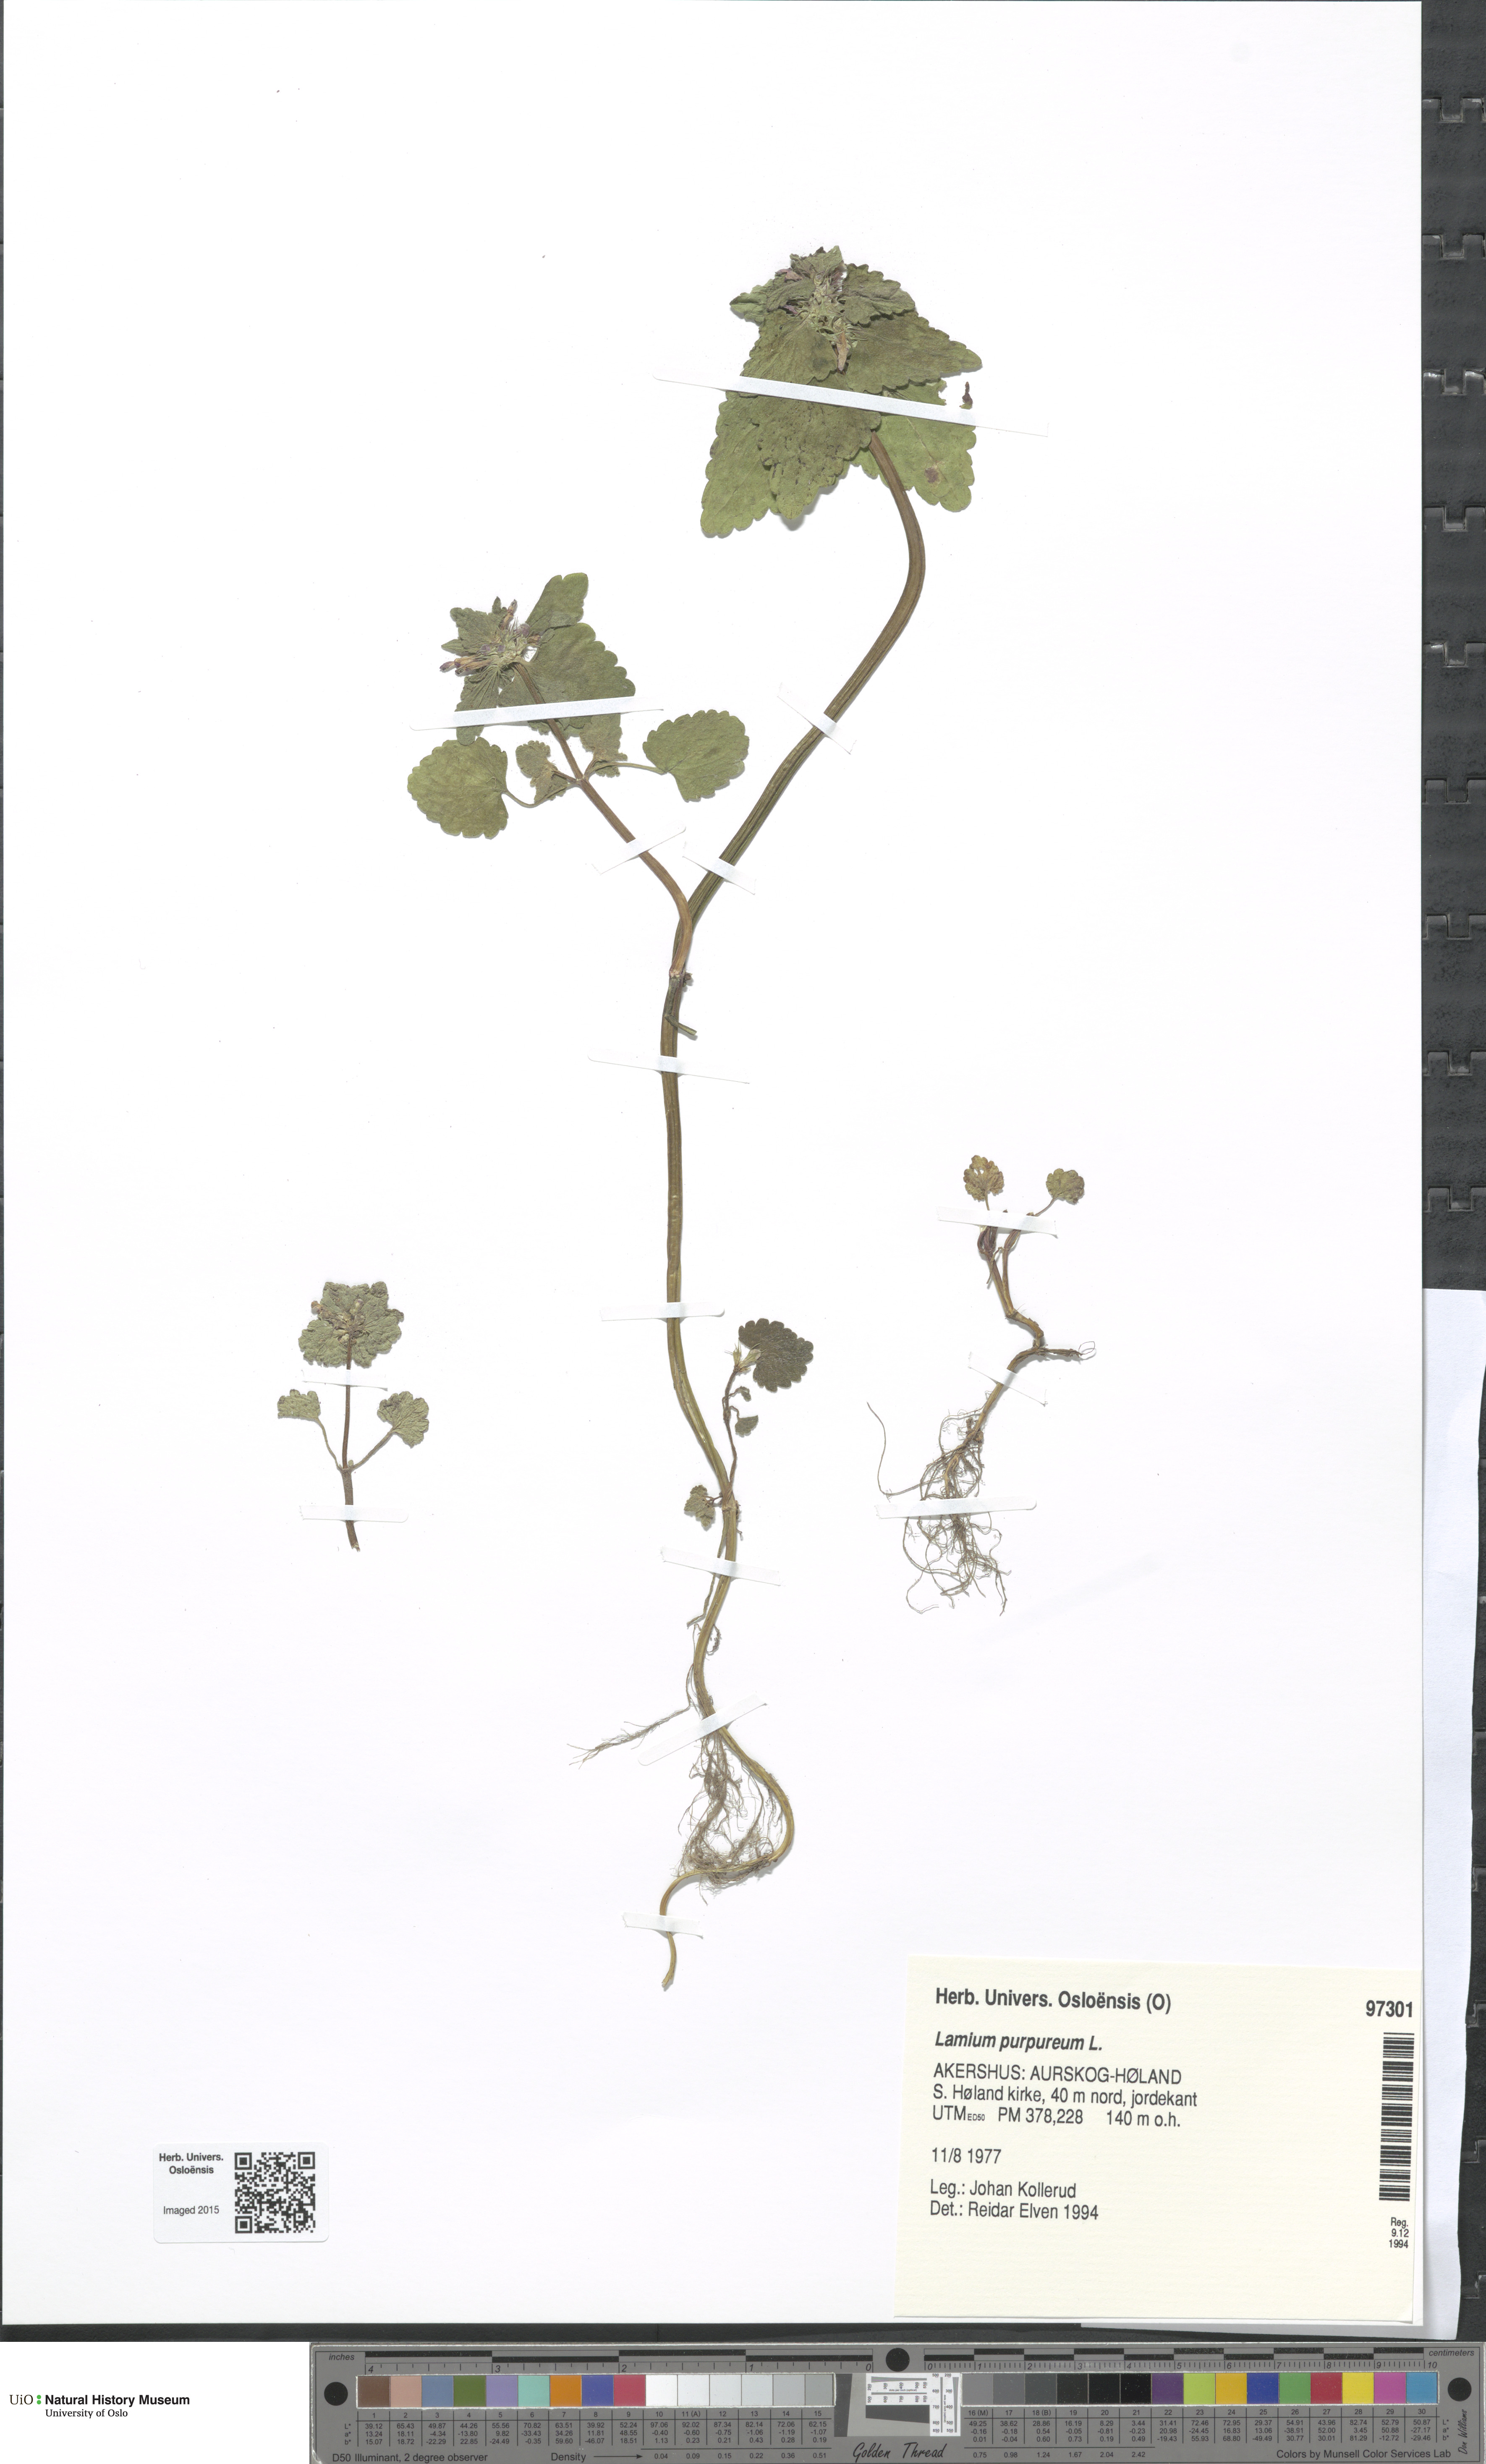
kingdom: Plantae
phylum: Tracheophyta
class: Magnoliopsida
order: Lamiales
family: Lamiaceae
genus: Lamium
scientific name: Lamium purpureum
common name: Red dead-nettle
